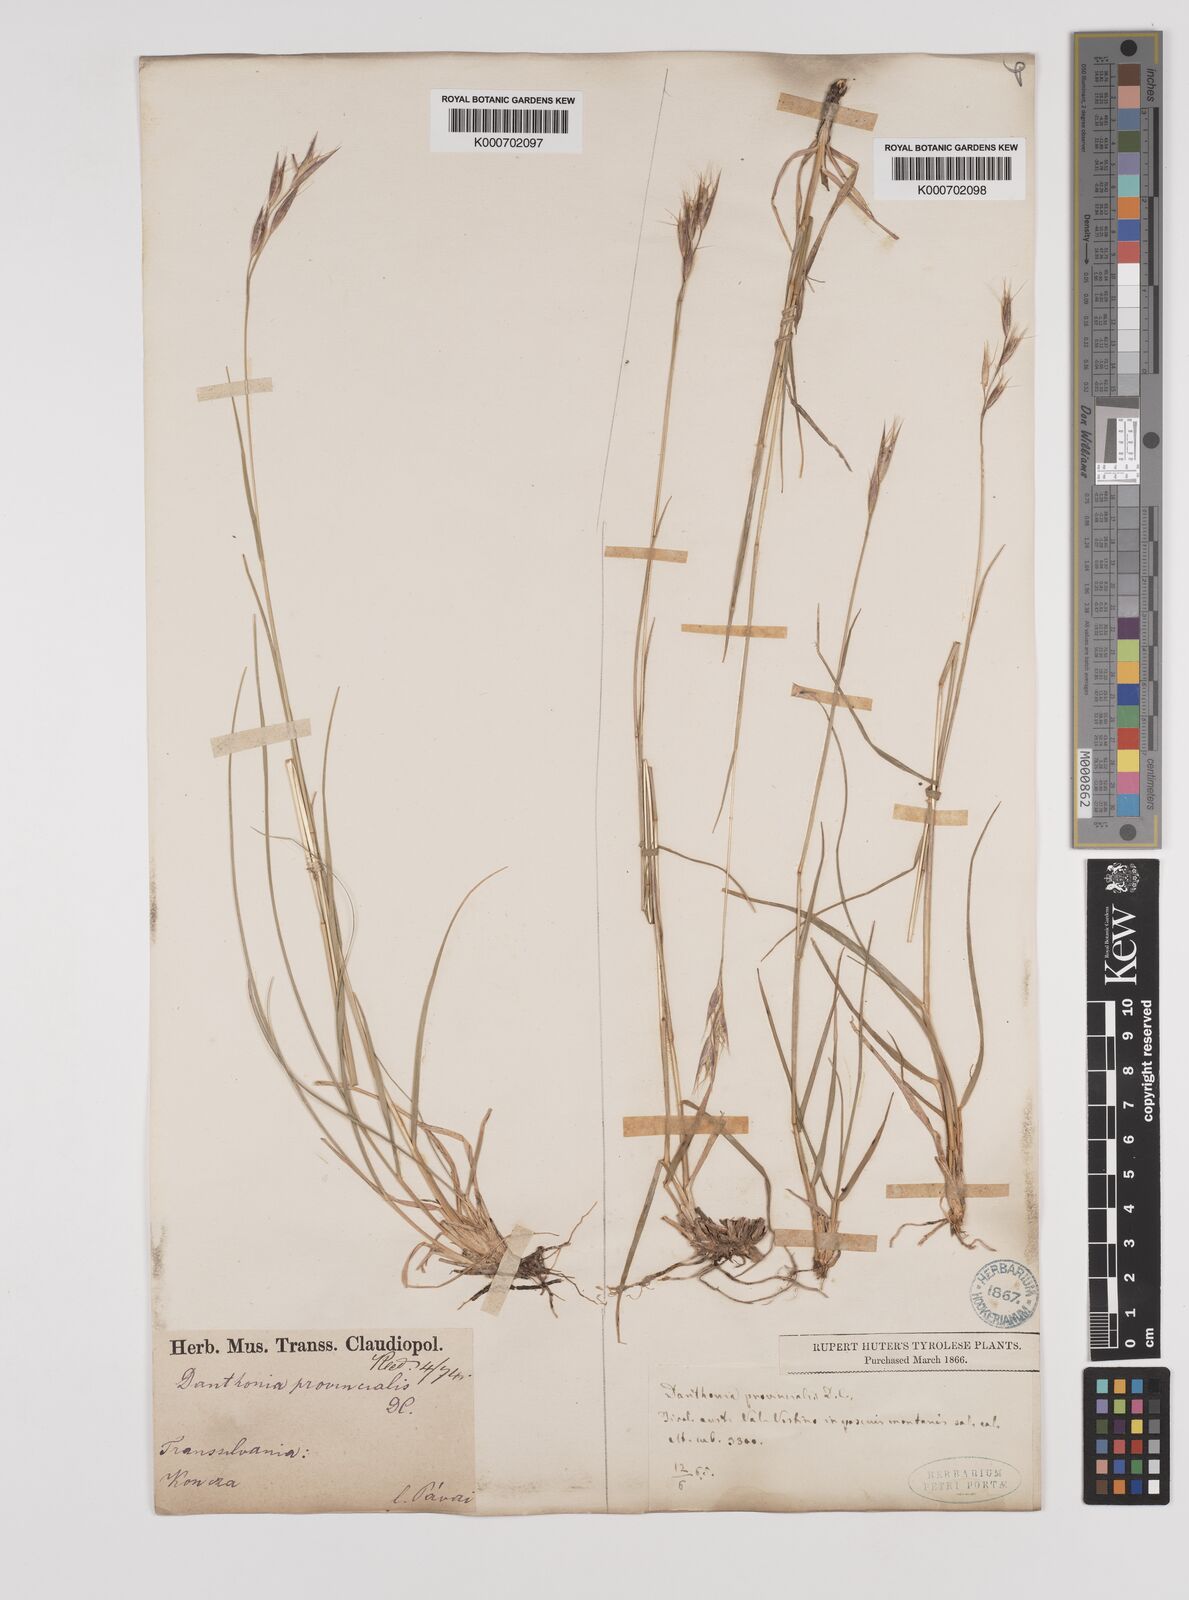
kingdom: Plantae
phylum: Tracheophyta
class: Liliopsida
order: Poales
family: Poaceae
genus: Danthonia
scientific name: Danthonia alpina
